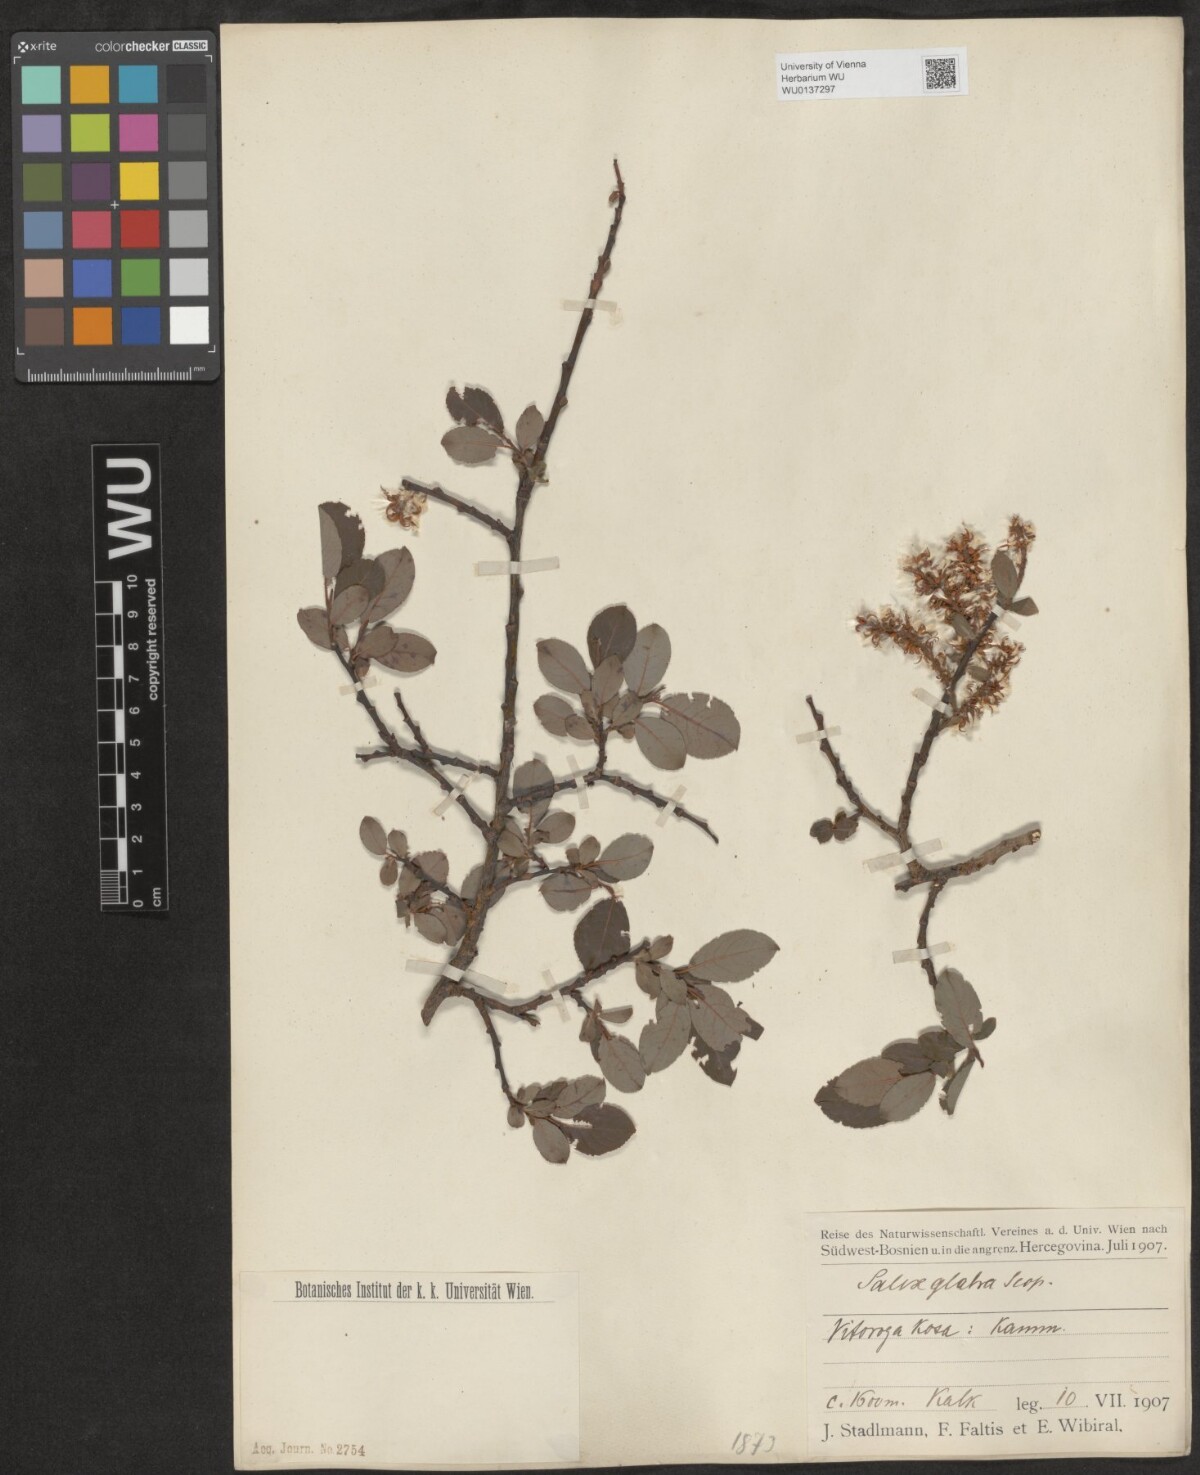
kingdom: Plantae
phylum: Tracheophyta
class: Magnoliopsida
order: Malpighiales
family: Salicaceae
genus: Salix
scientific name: Salix glabra
